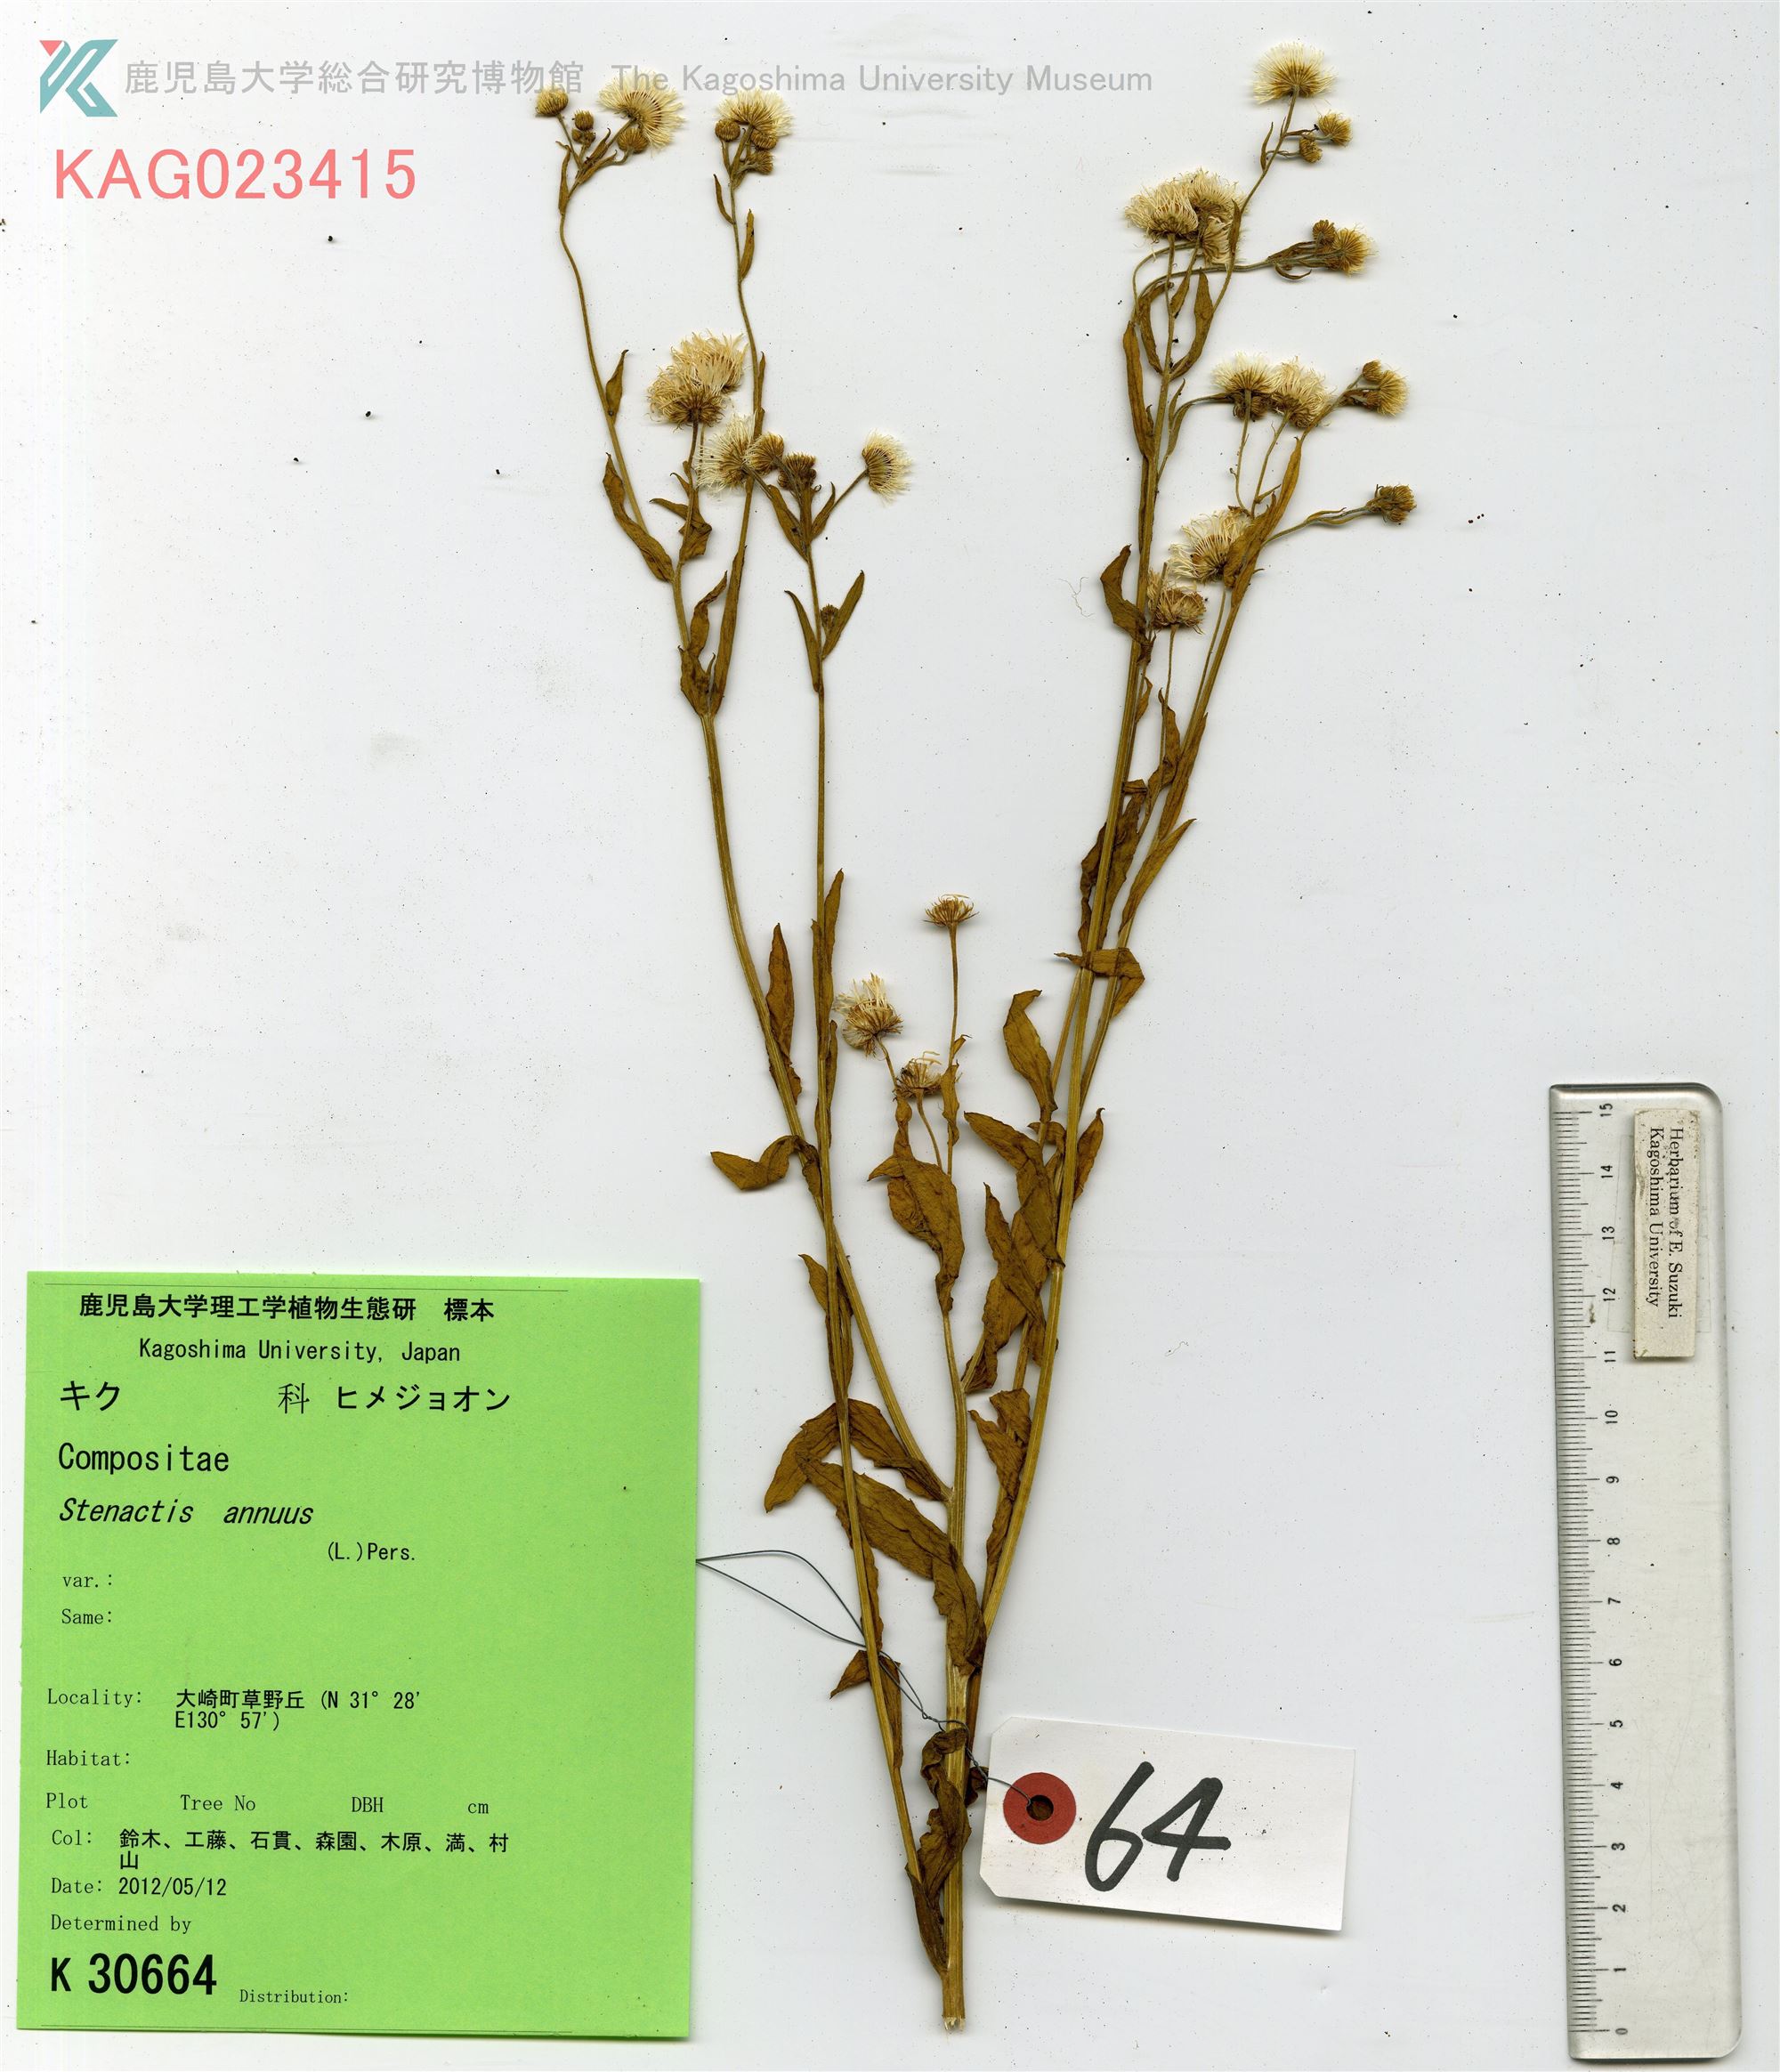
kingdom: Plantae
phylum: Tracheophyta
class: Magnoliopsida
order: Asterales
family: Asteraceae
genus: Erigeron
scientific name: Erigeron annuus
